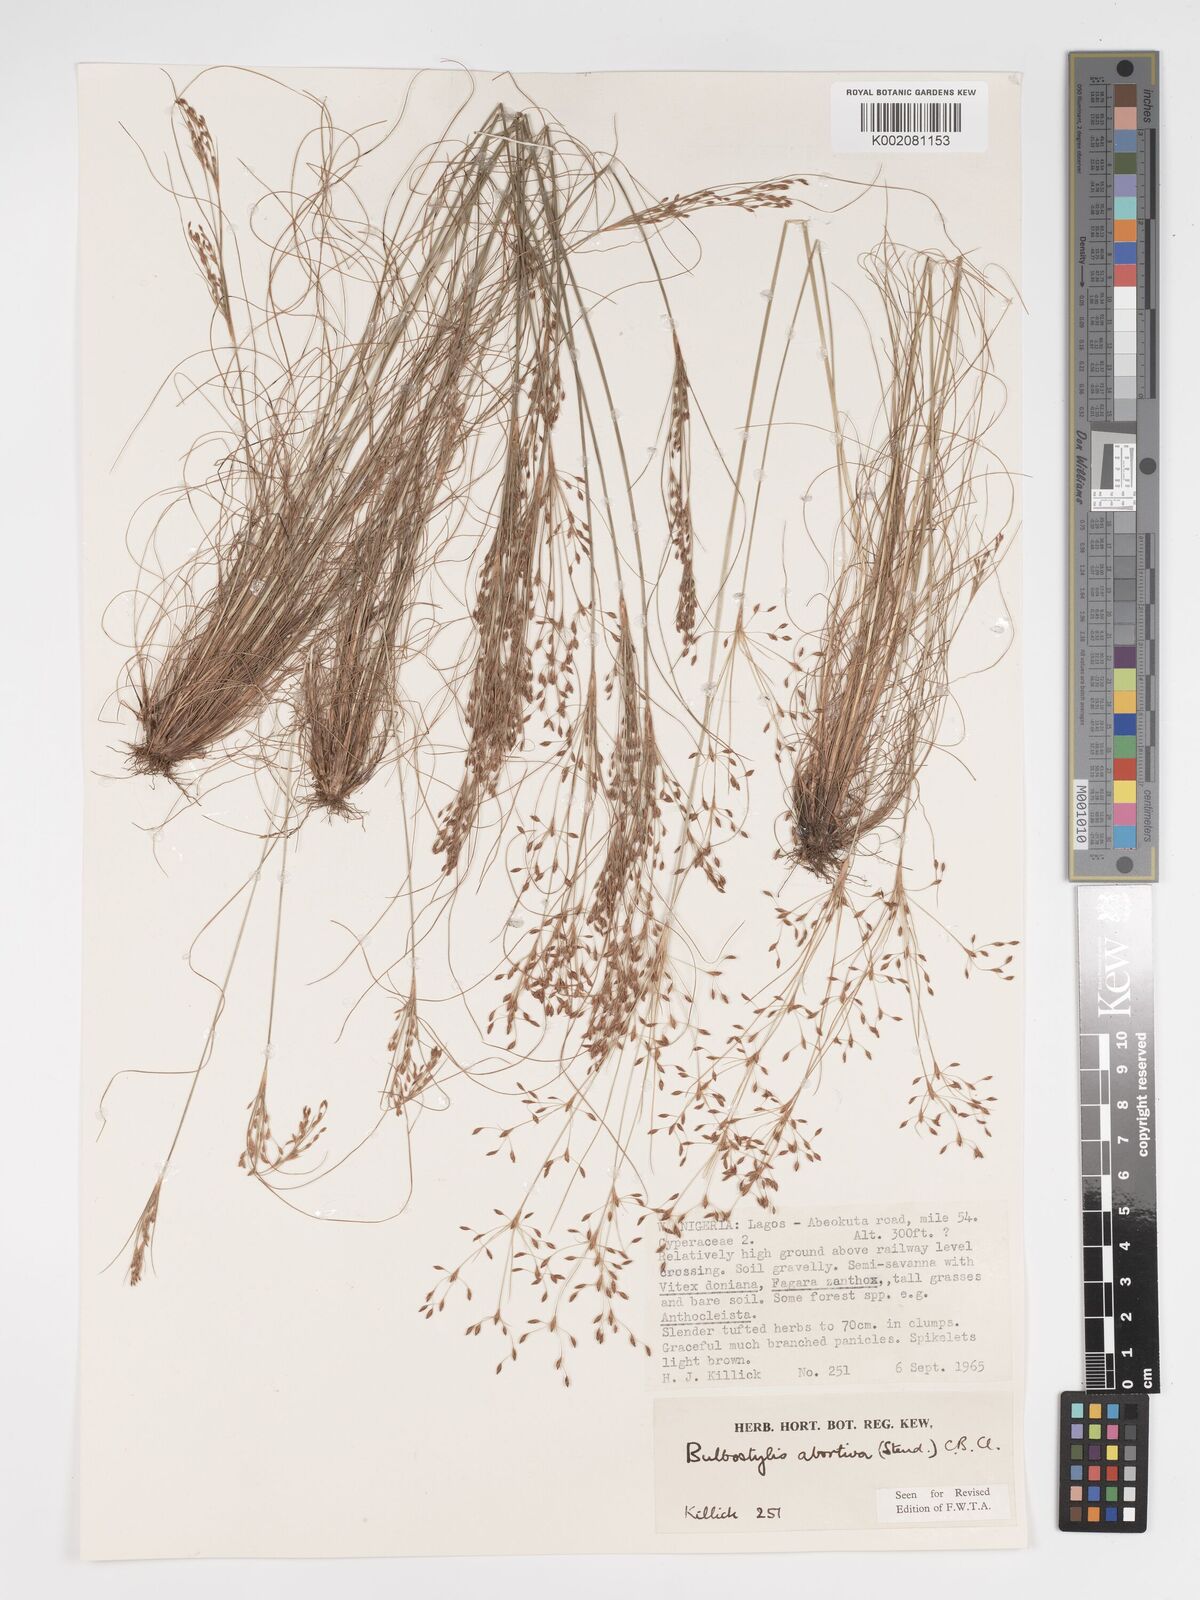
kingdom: Plantae
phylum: Tracheophyta
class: Liliopsida
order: Poales
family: Cyperaceae
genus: Bulbostylis
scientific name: Bulbostylis abortiva
